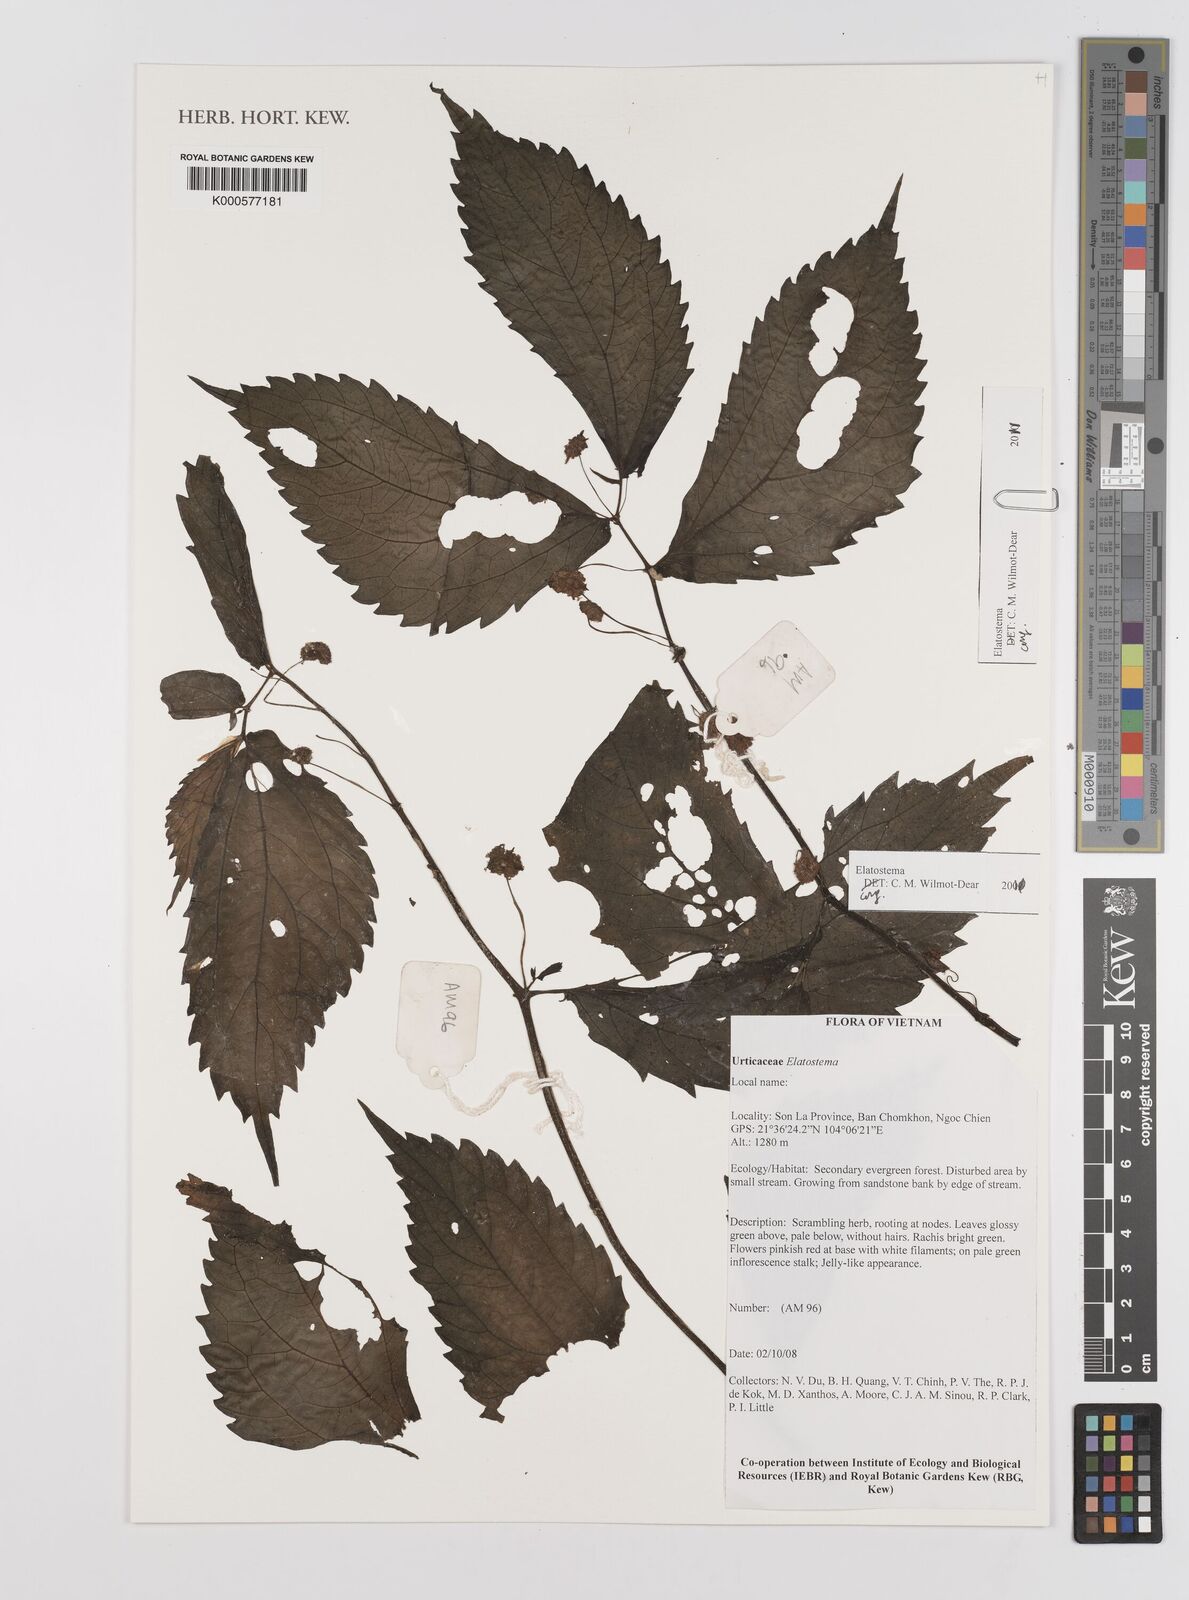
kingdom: Plantae
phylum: Tracheophyta
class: Magnoliopsida
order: Rosales
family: Urticaceae
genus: Elatostema
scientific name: Elatostema
